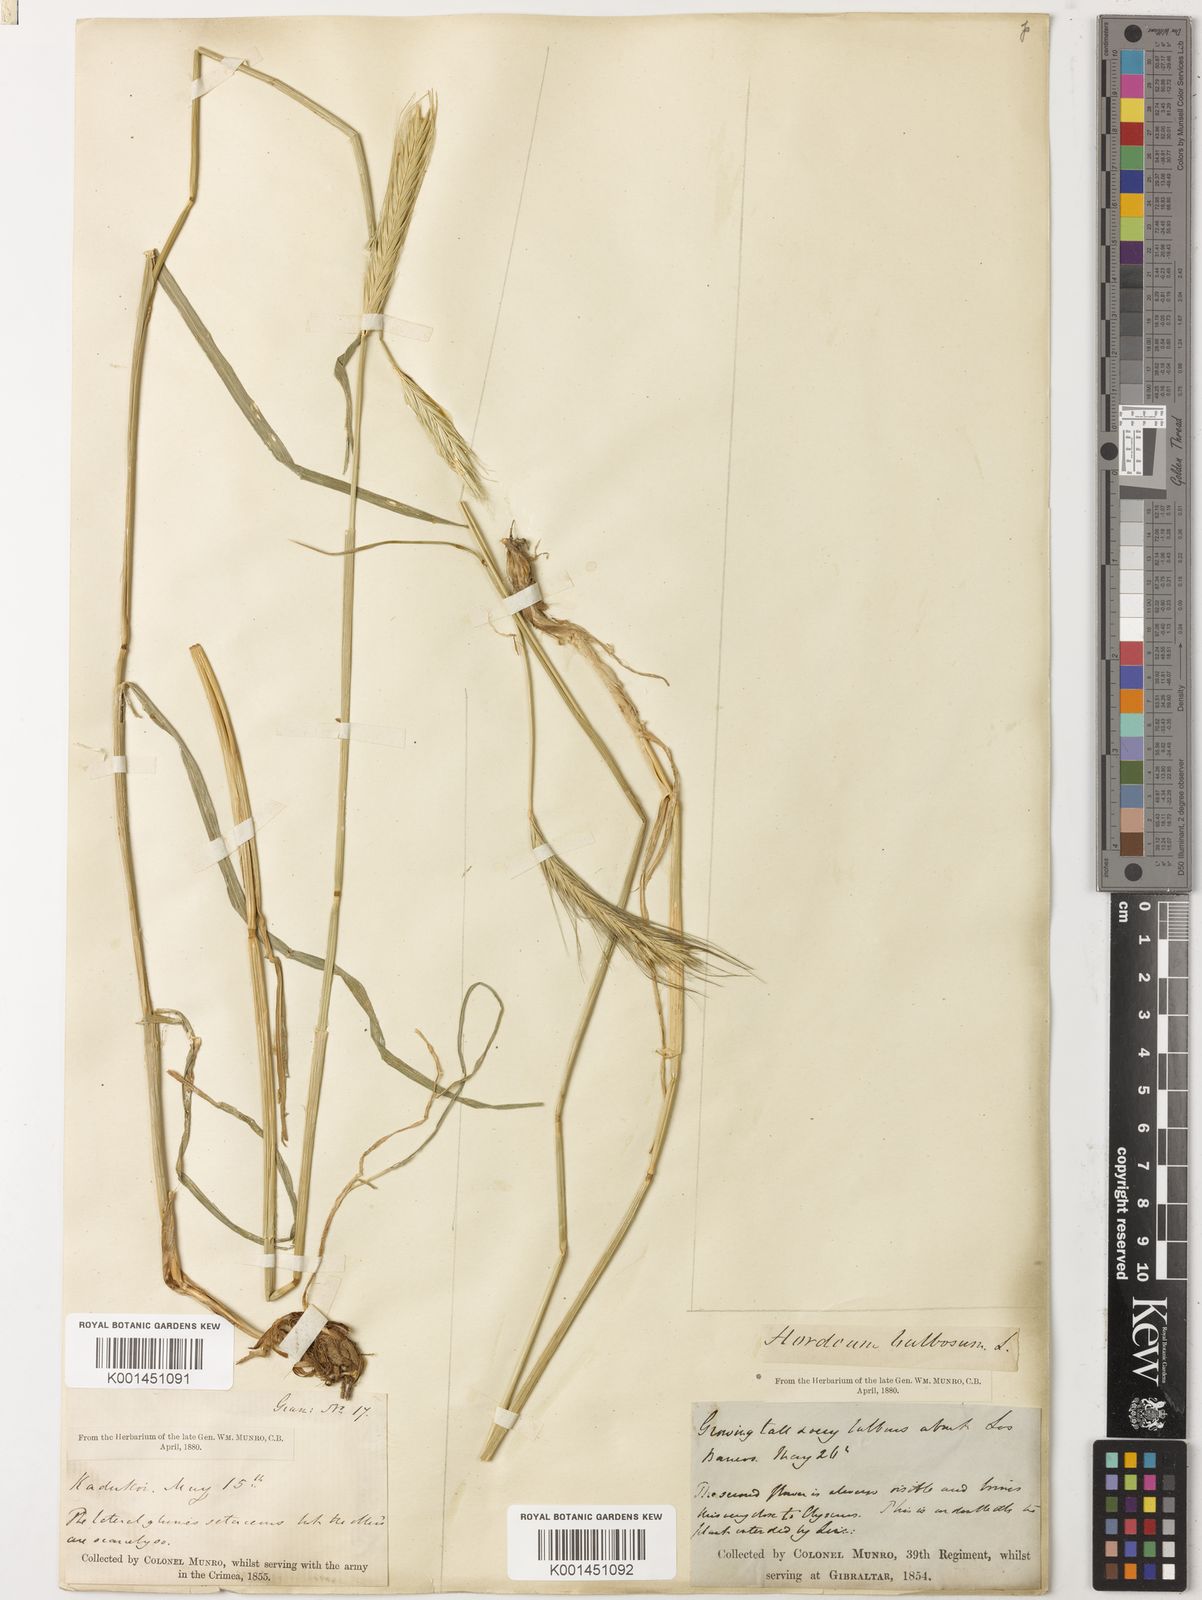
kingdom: Plantae
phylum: Tracheophyta
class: Liliopsida
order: Poales
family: Poaceae
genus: Hordeum
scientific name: Hordeum bulbosum
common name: Bulbous barley
